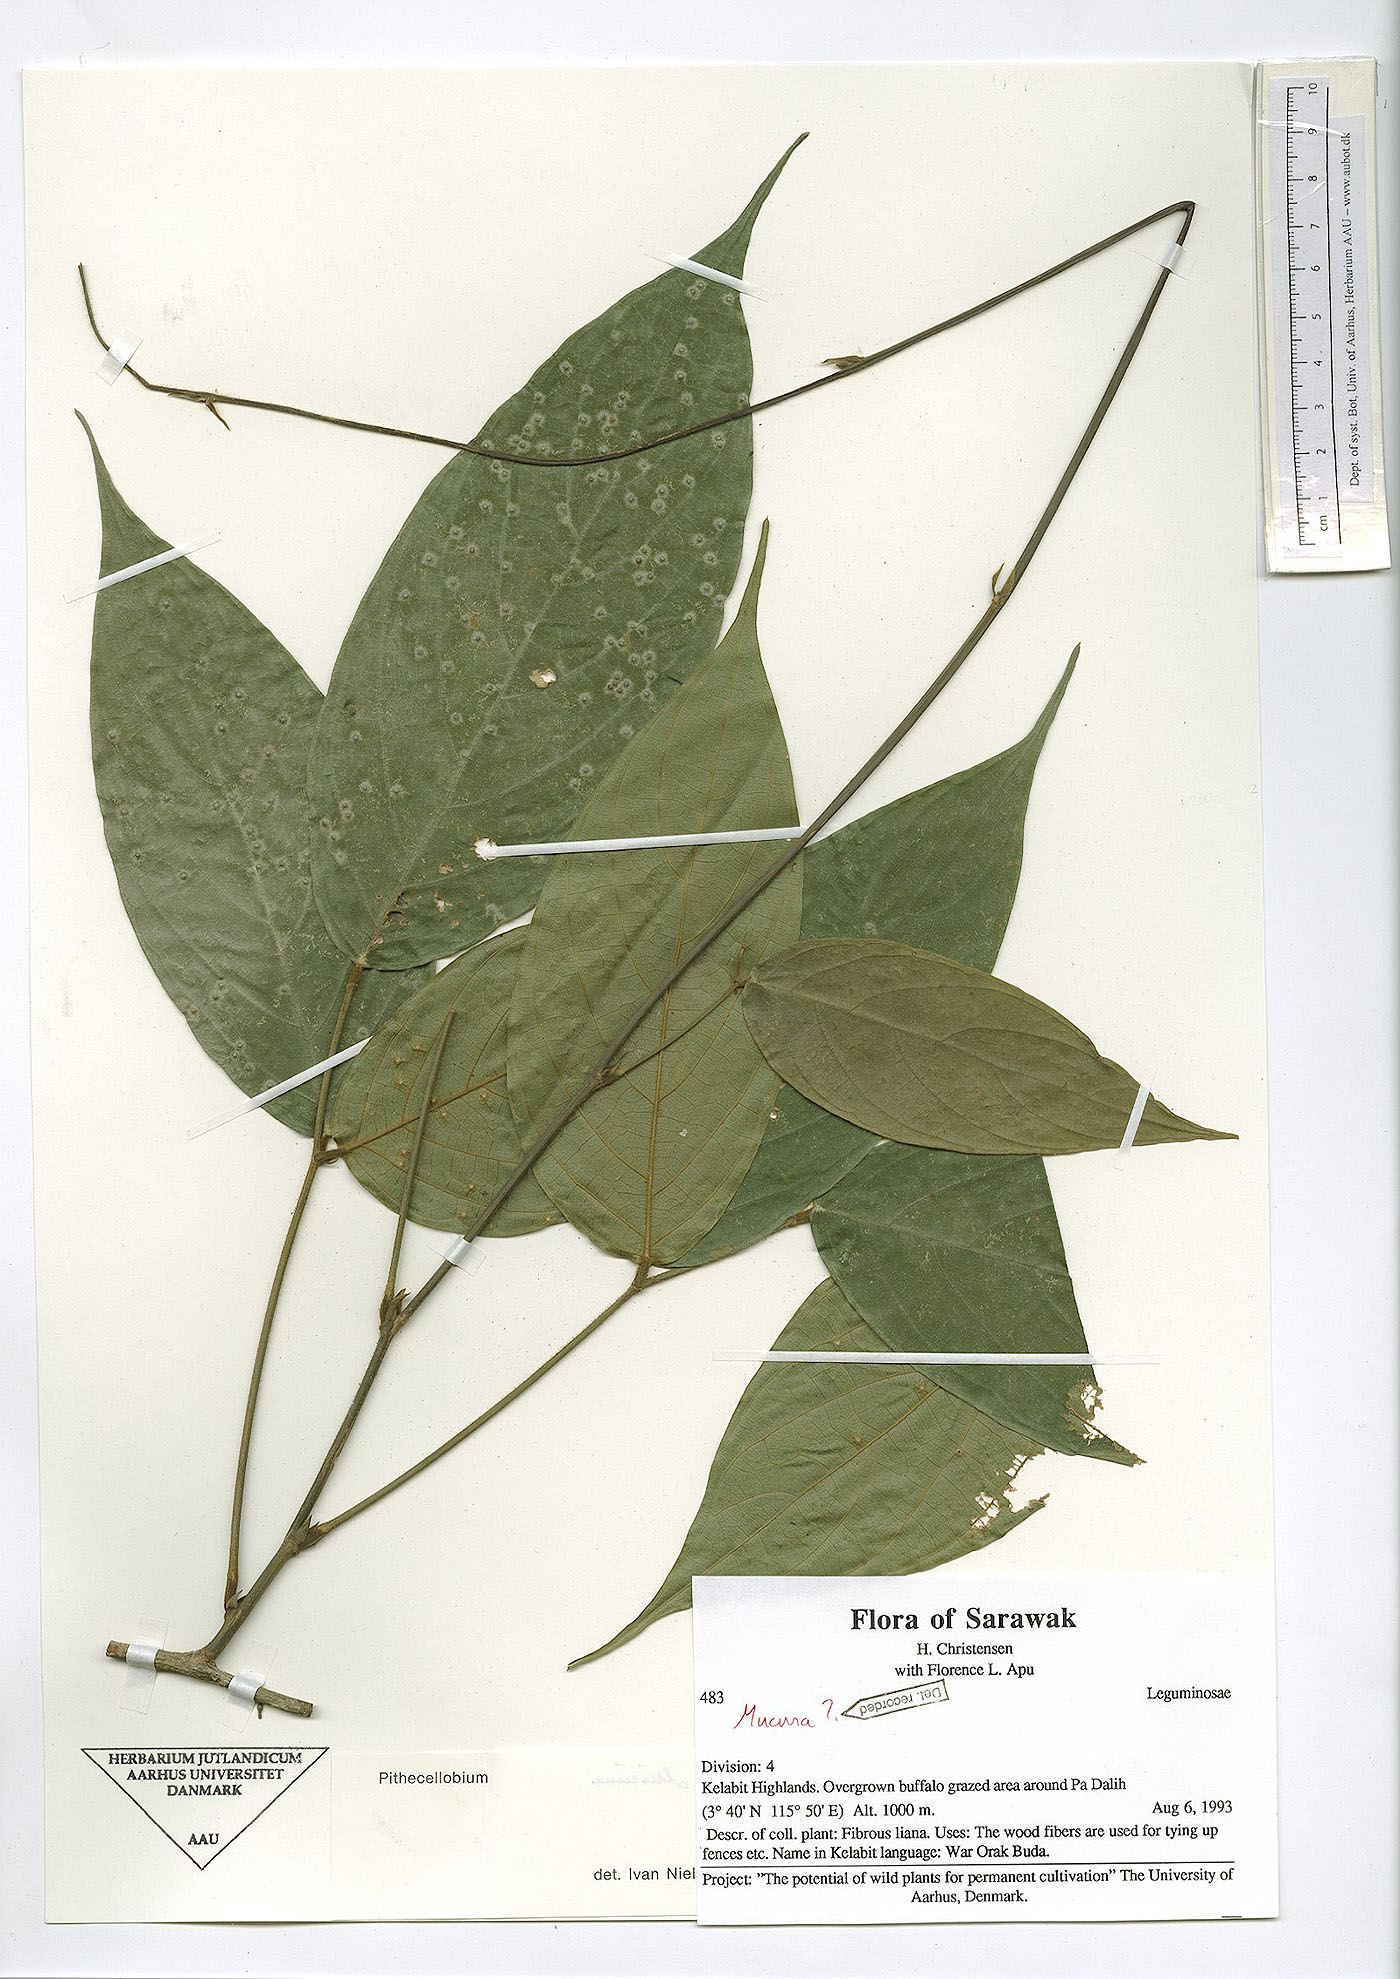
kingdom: Plantae
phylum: Tracheophyta
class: Magnoliopsida
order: Fabales
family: Fabaceae
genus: Spatholobus
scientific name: Spatholobus
